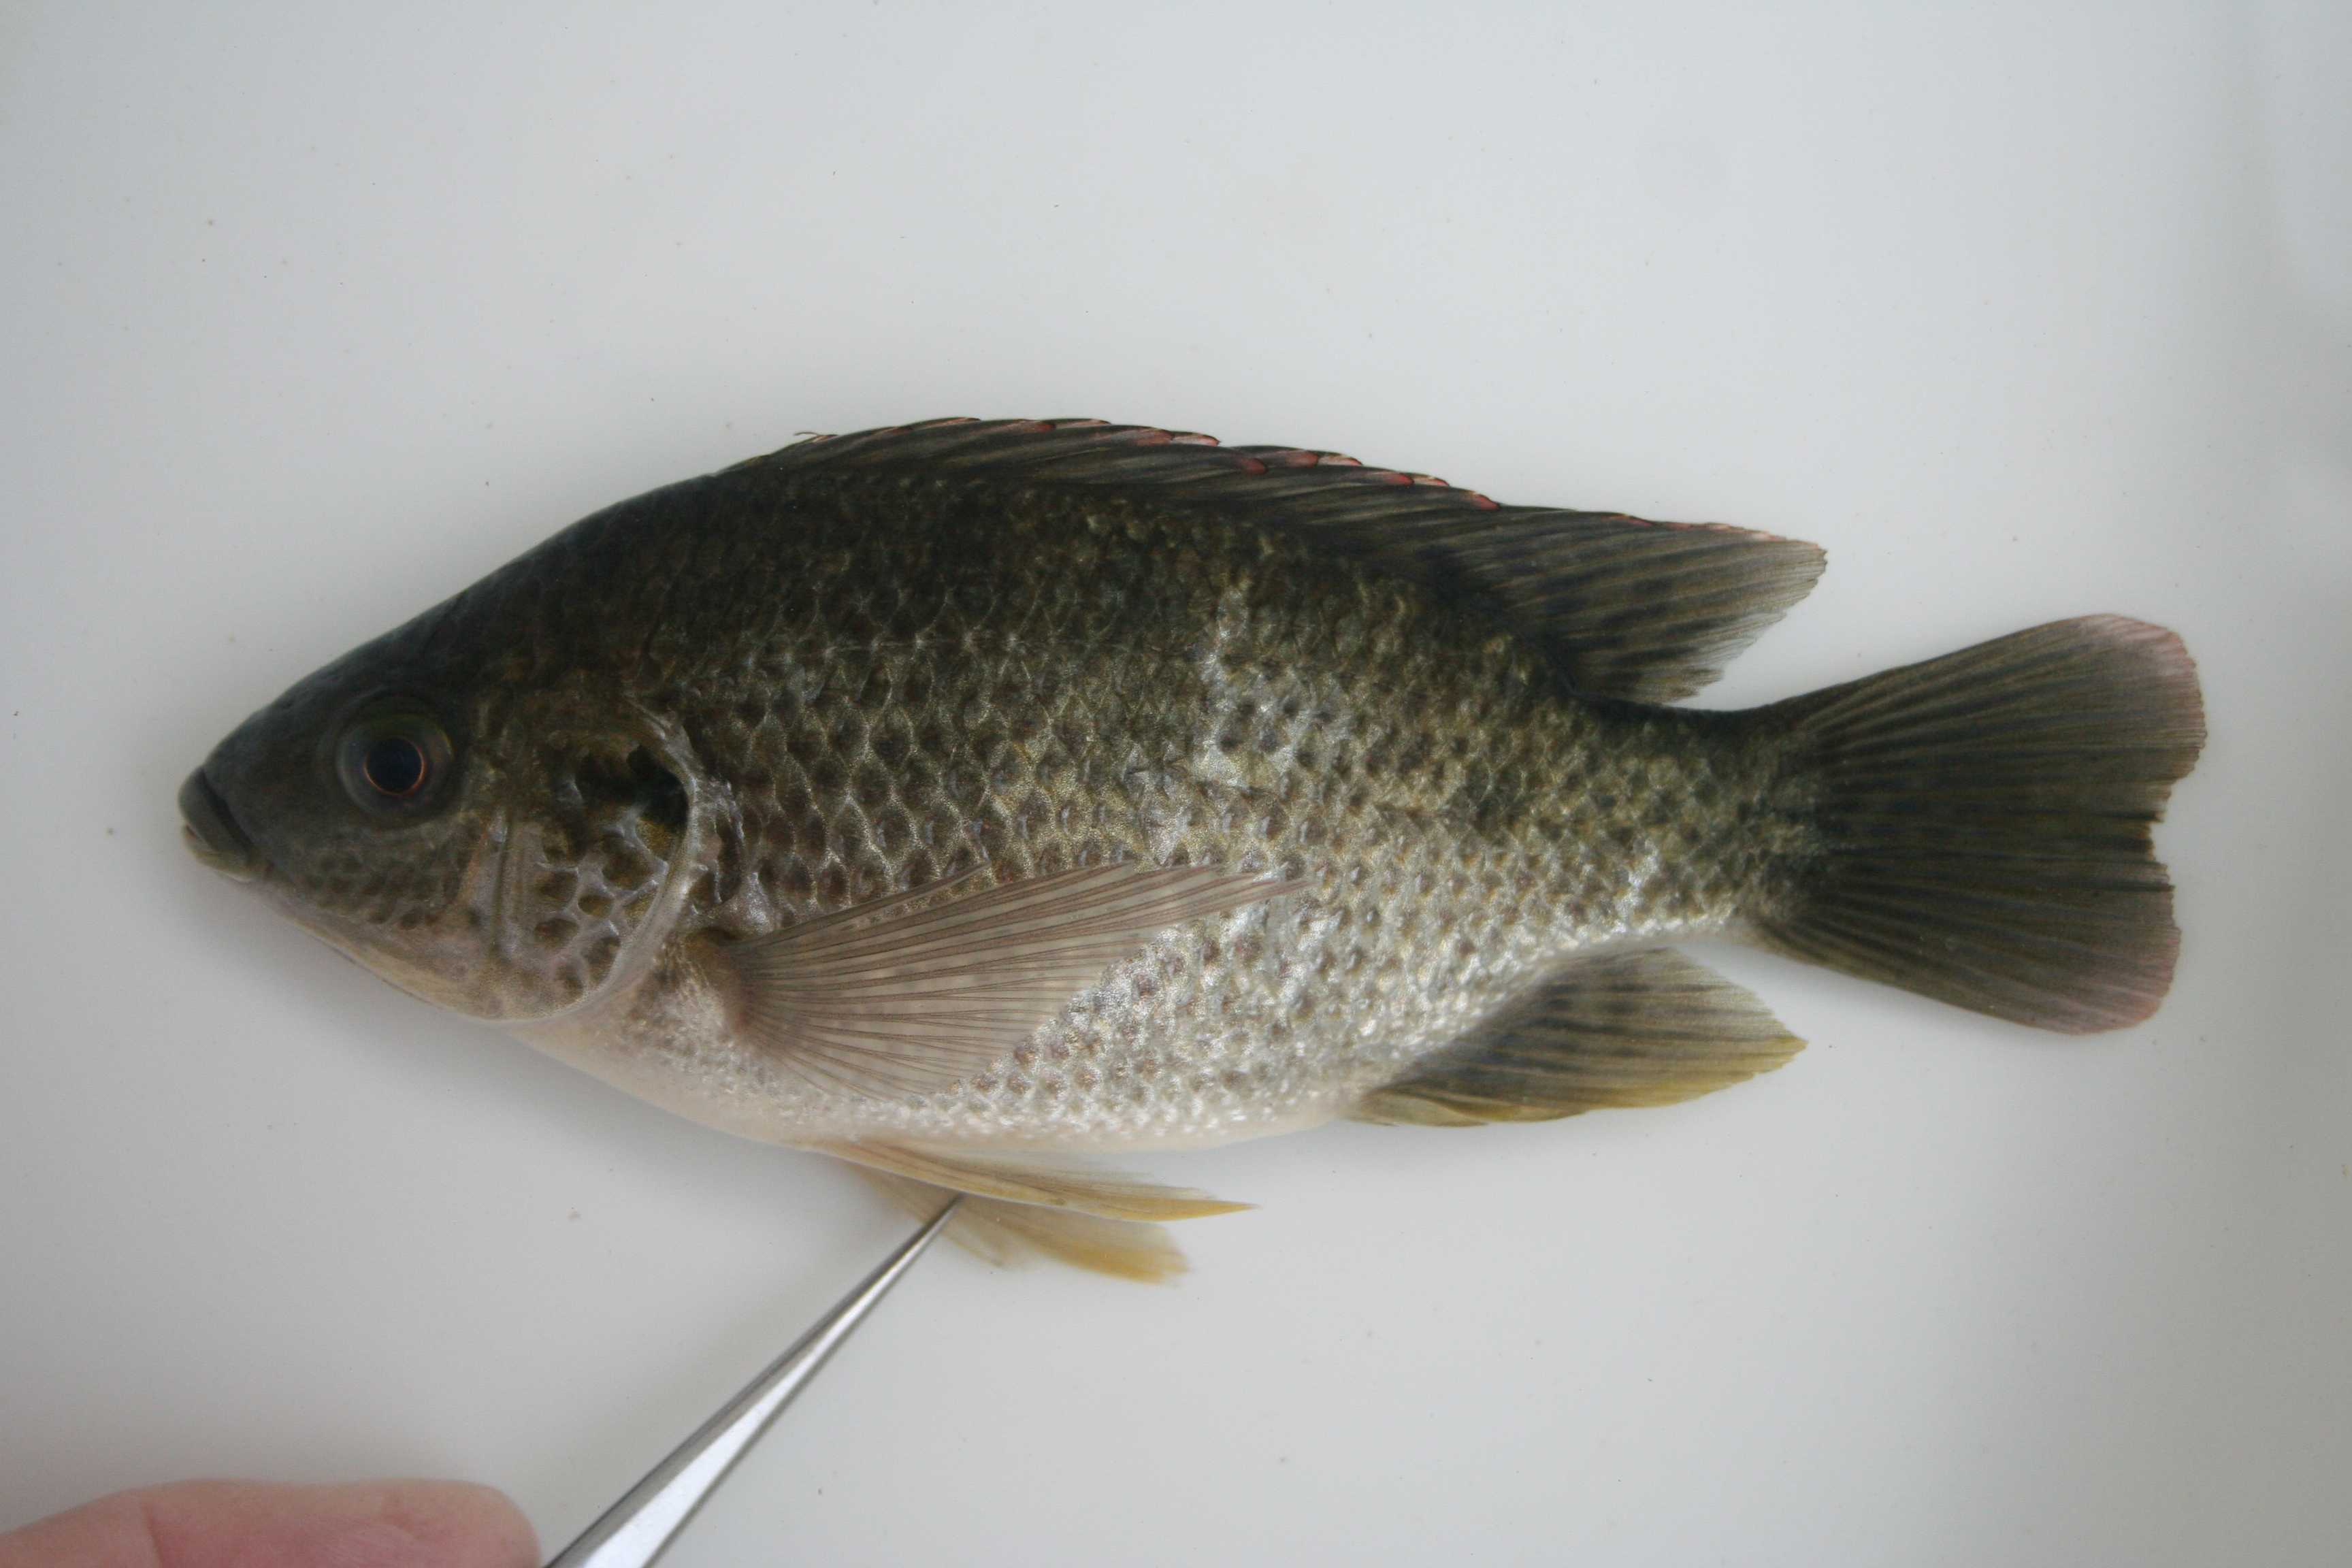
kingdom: Animalia
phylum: Chordata
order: Perciformes
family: Cichlidae
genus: Oreochromis
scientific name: Oreochromis
